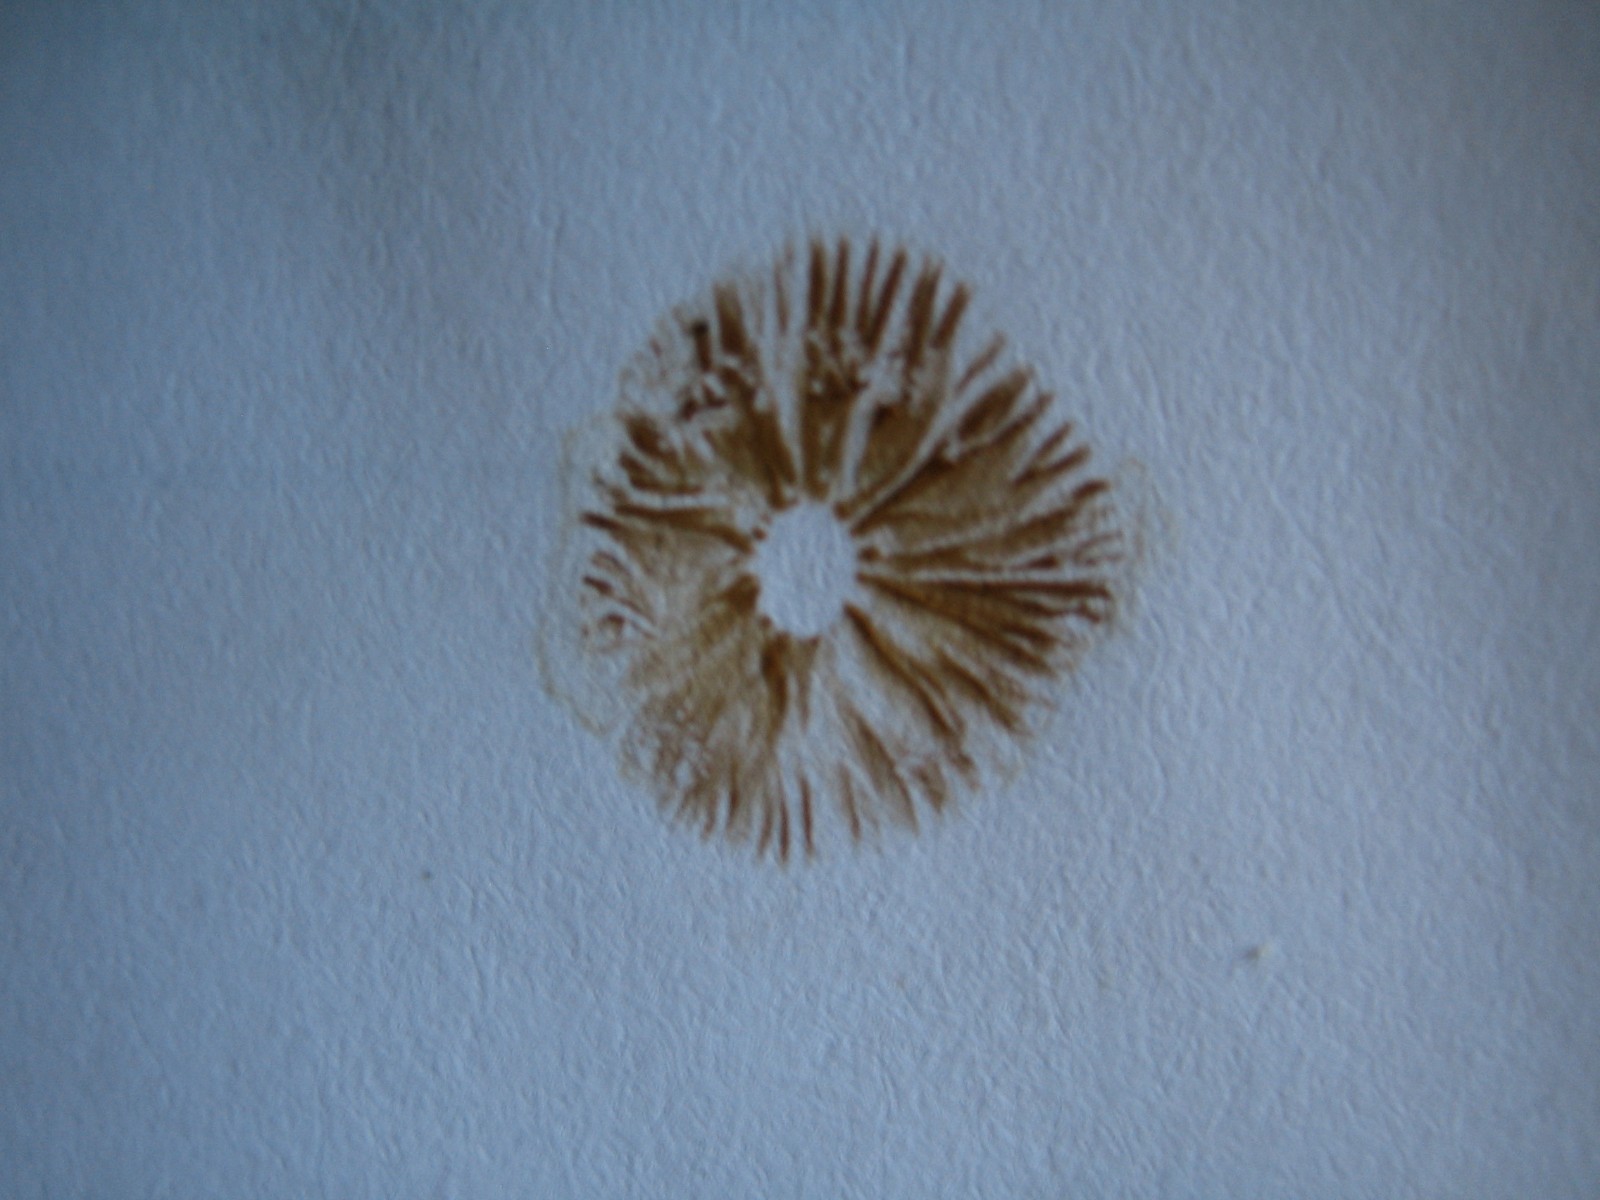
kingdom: Fungi
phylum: Basidiomycota
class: Agaricomycetes
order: Agaricales
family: Hymenogastraceae
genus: Galerina
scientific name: Galerina pumila
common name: honninggul hjelmhat
